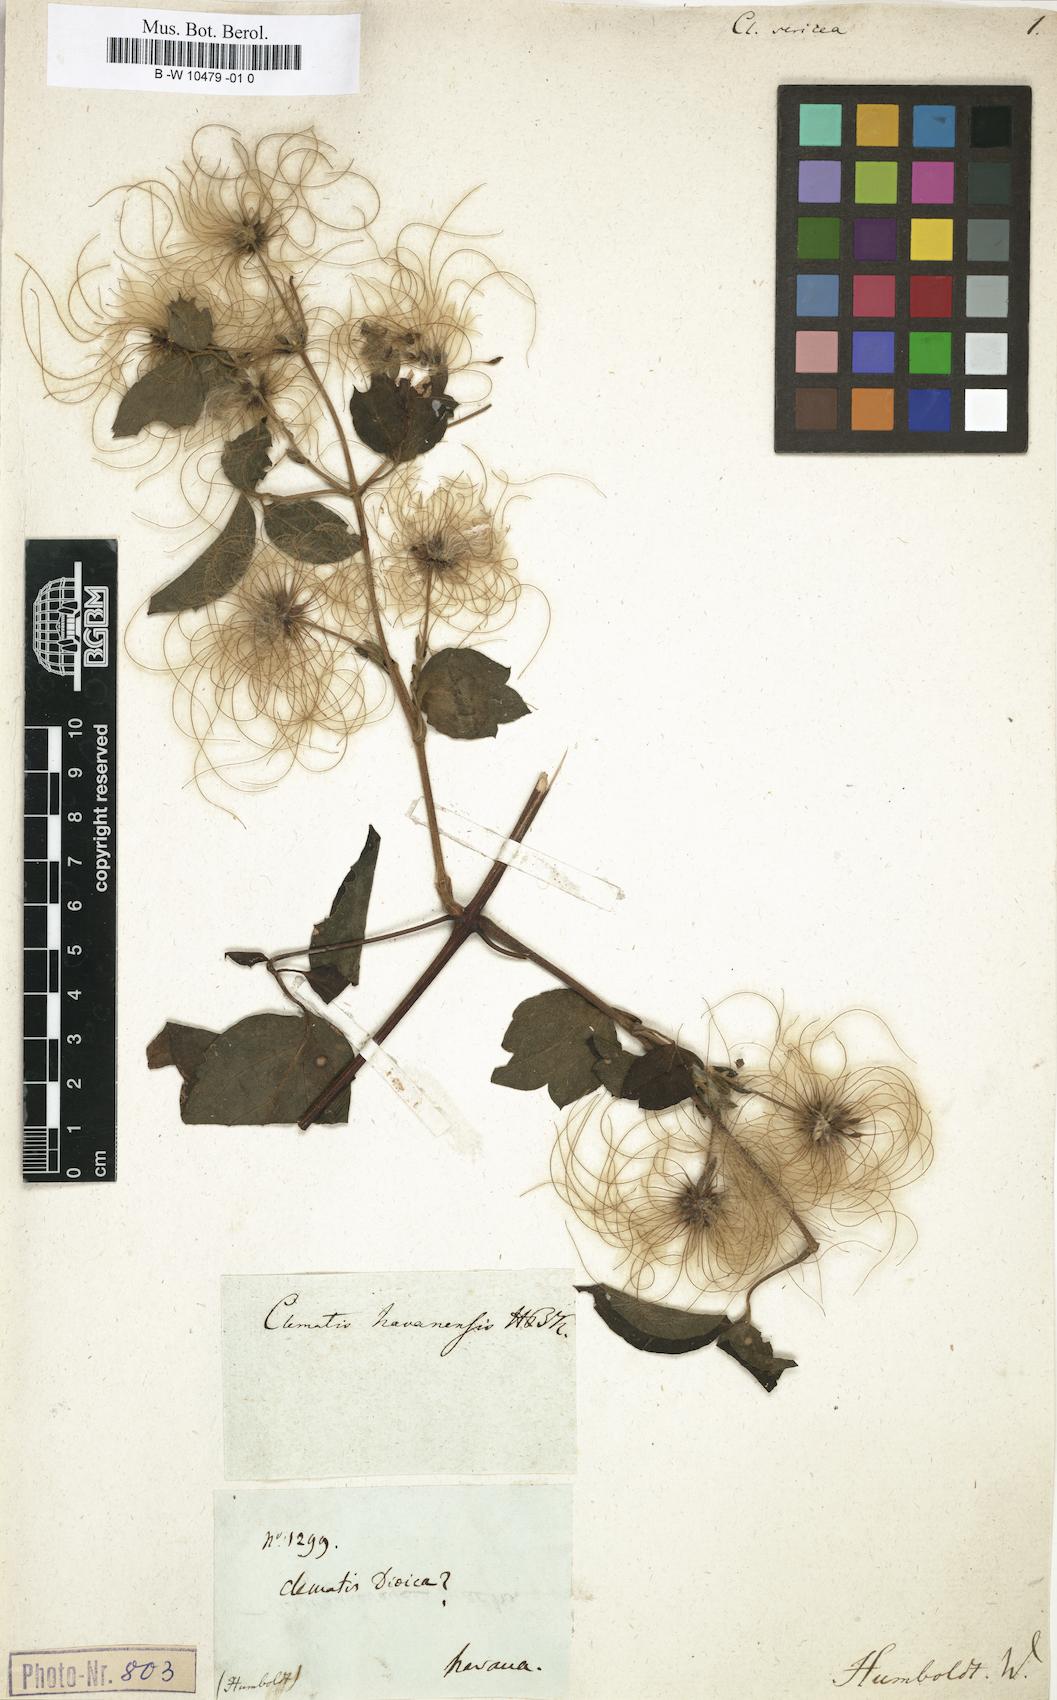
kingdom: Plantae
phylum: Tracheophyta
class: Magnoliopsida
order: Ranunculales
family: Ranunculaceae
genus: Clematis
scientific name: Clematis haenkeana
